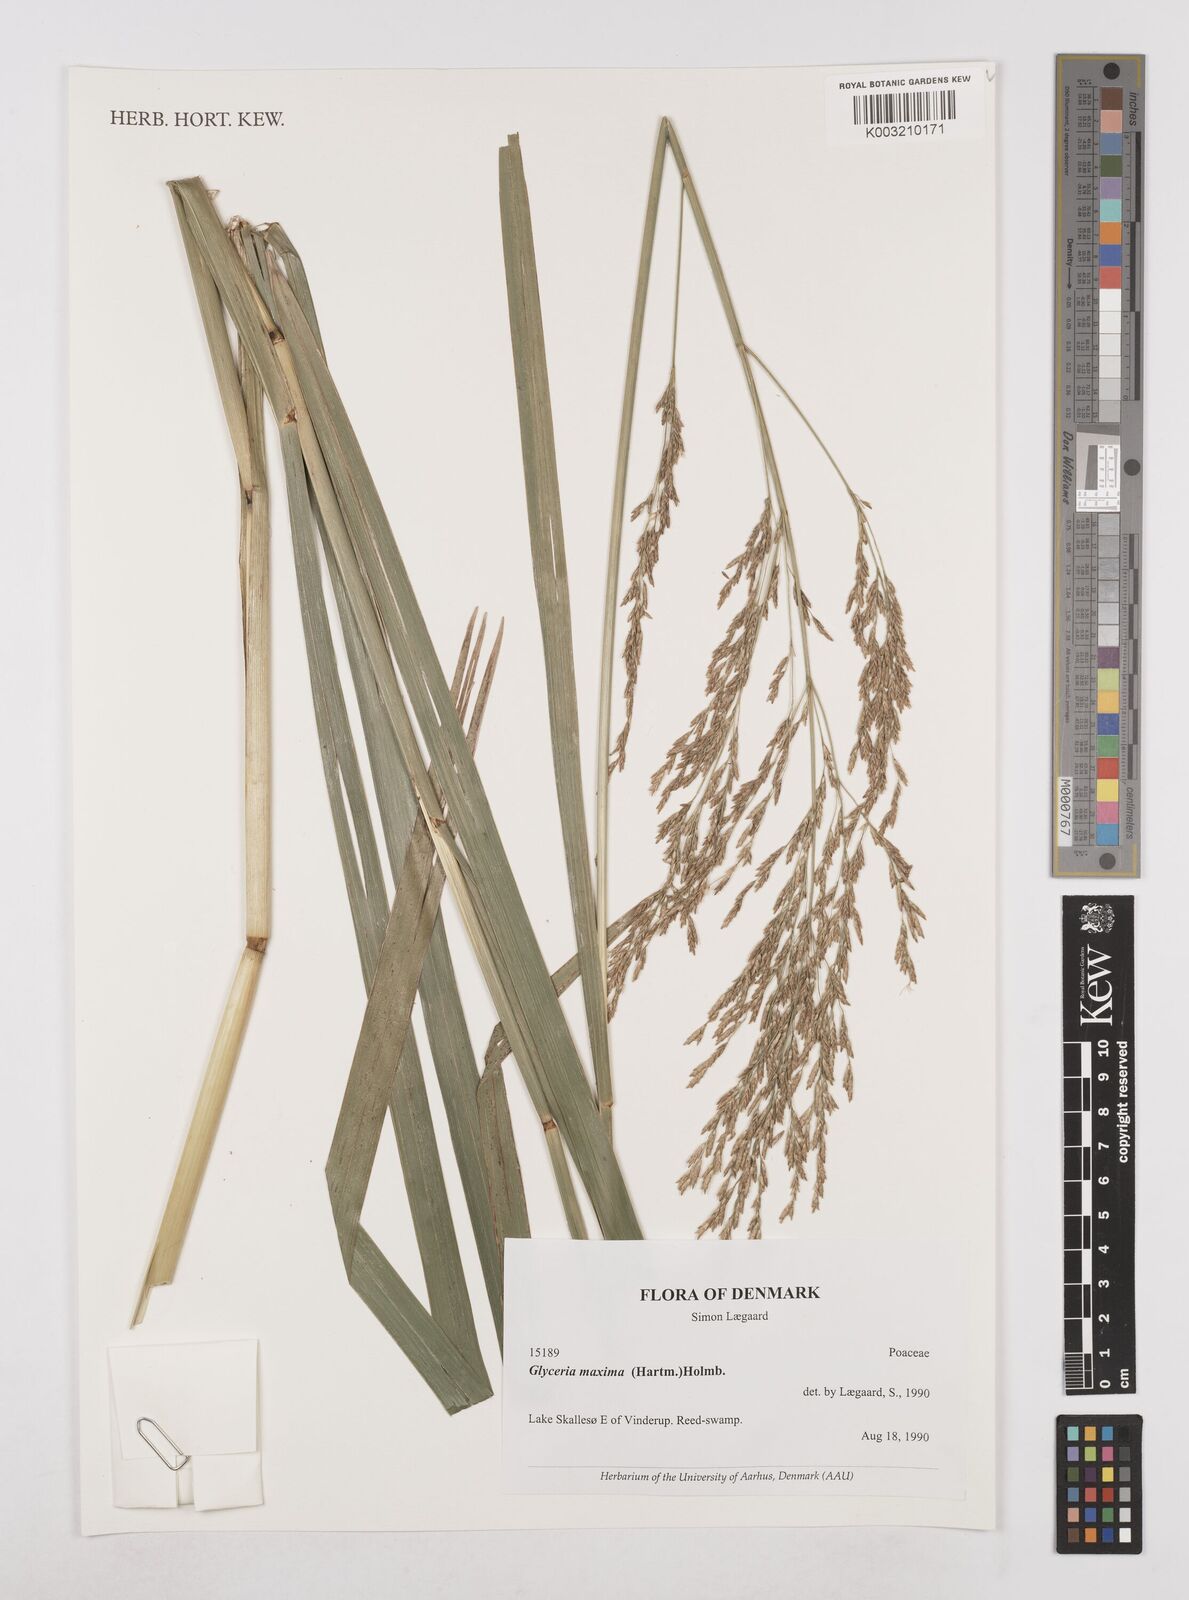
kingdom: Plantae
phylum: Tracheophyta
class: Liliopsida
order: Poales
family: Poaceae
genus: Glyceria
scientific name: Glyceria maxima
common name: Reed mannagrass
